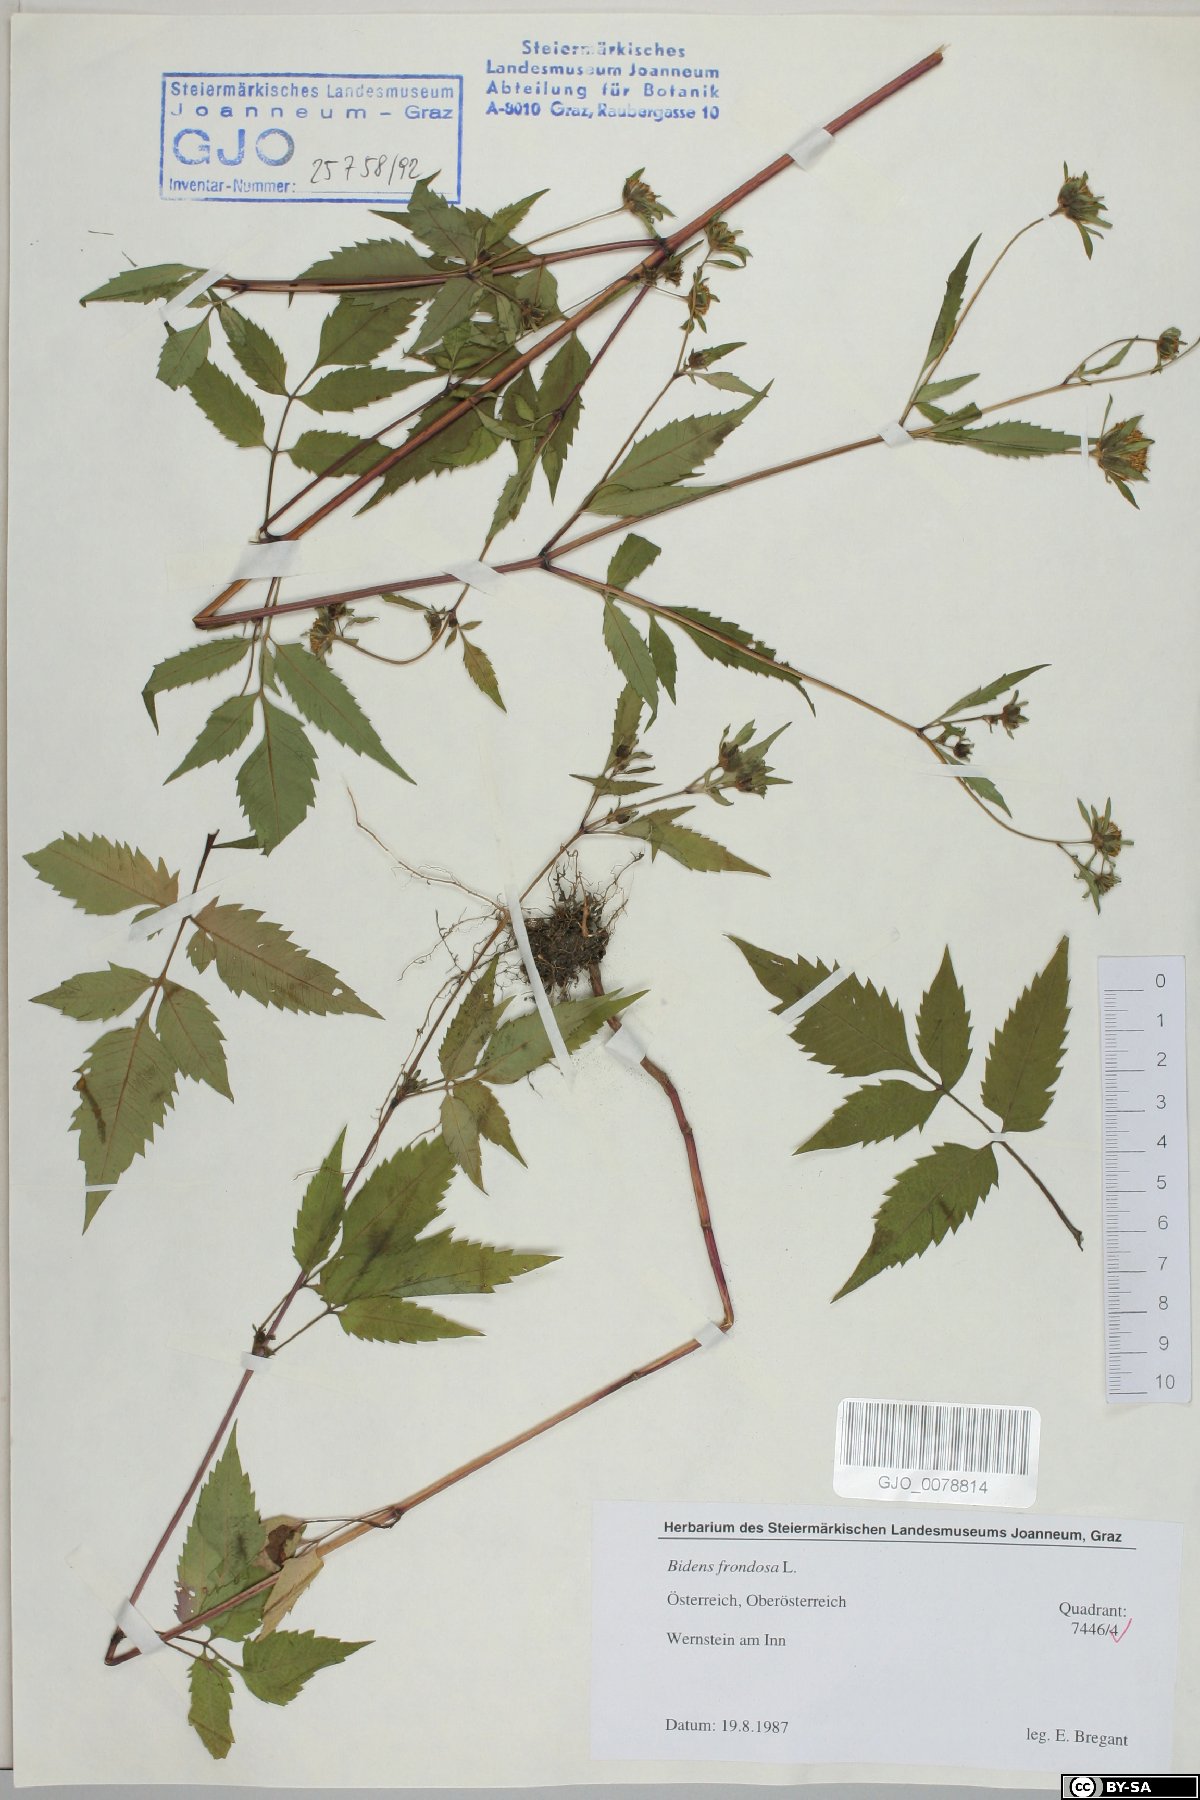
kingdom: Plantae
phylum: Tracheophyta
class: Magnoliopsida
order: Asterales
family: Asteraceae
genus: Bidens
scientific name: Bidens frondosa
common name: Beggarticks
